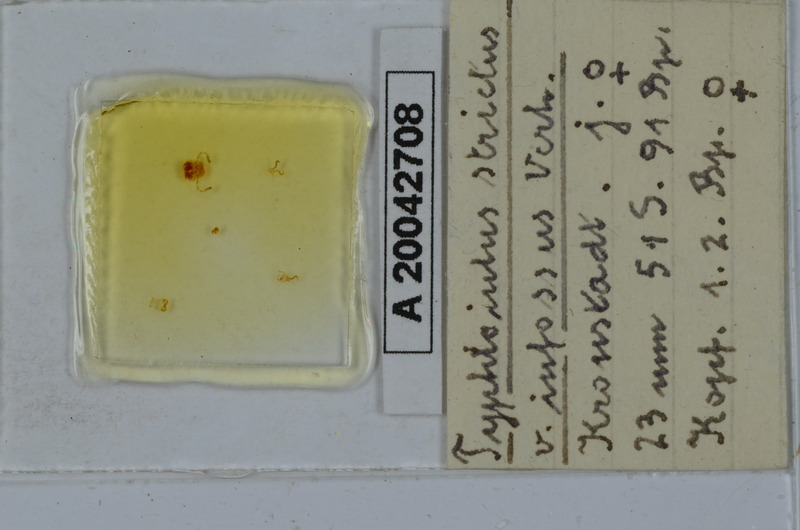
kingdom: Animalia
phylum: Arthropoda
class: Diplopoda
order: Julida
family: Julidae
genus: Typhloiulus
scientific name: Typhloiulus strictus
